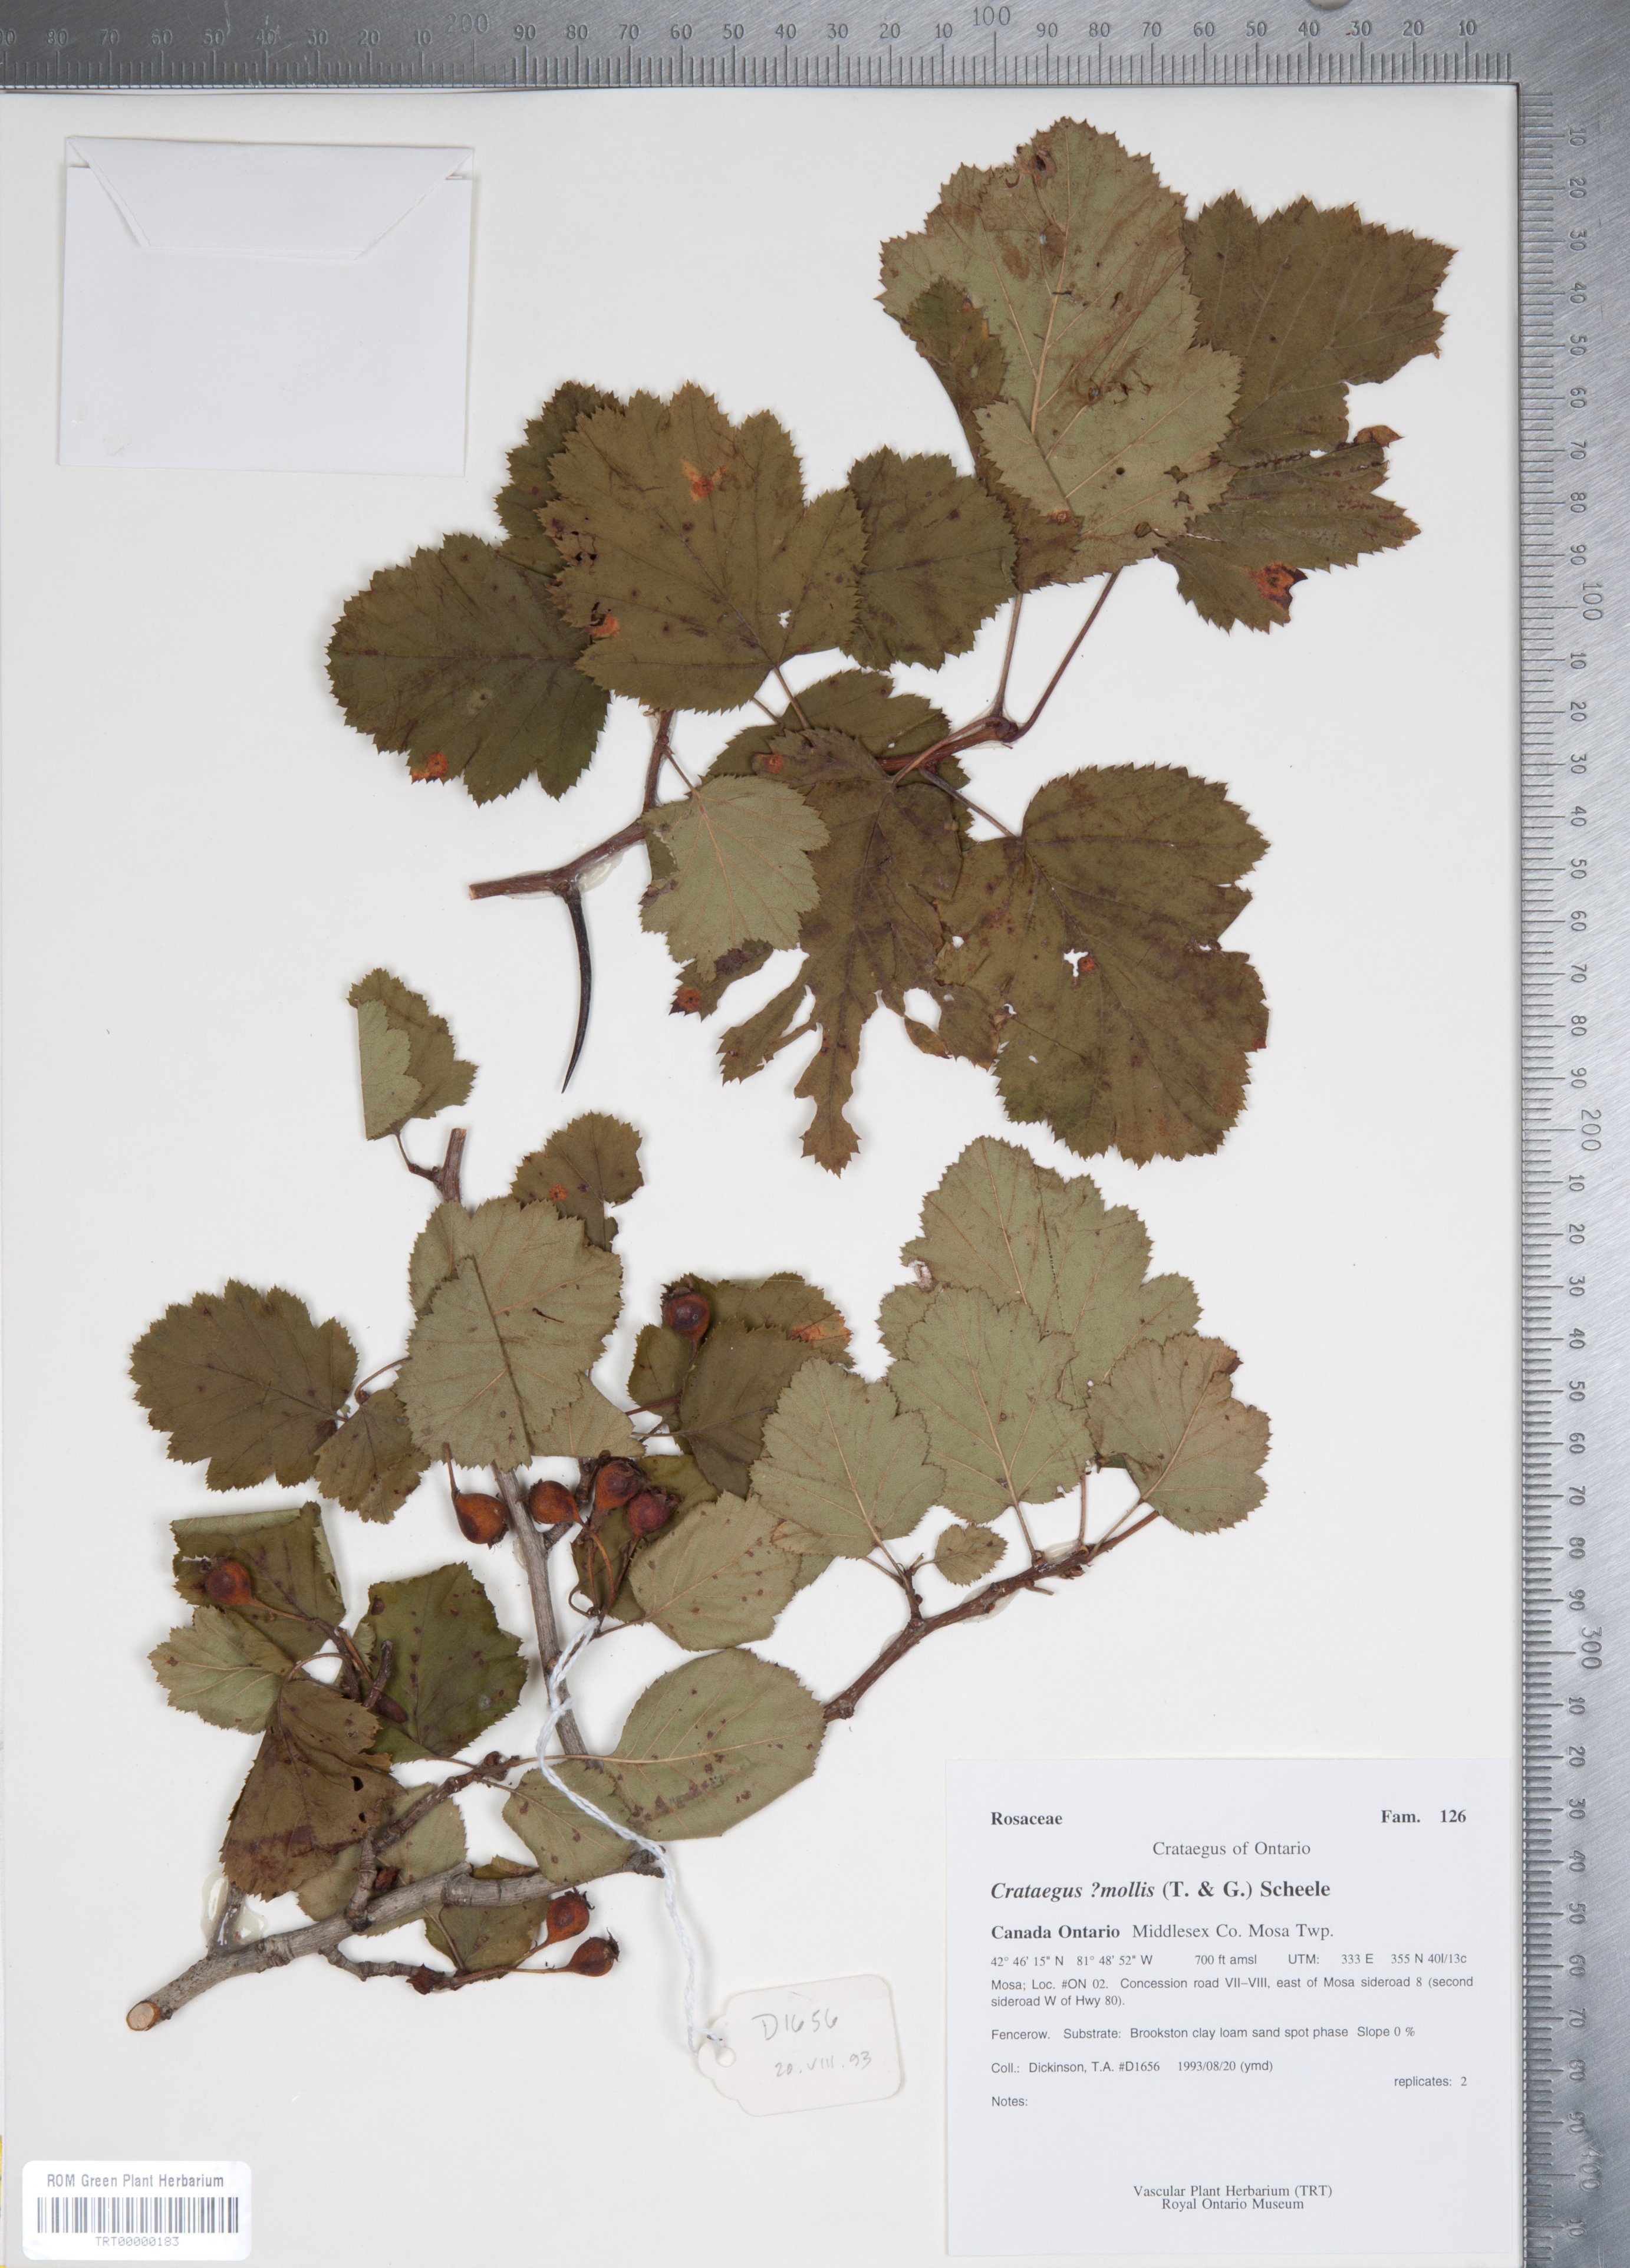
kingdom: Plantae
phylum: Tracheophyta
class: Magnoliopsida
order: Rosales
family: Rosaceae
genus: Crataegus
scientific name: Crataegus mollis
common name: Downy hawthorn
